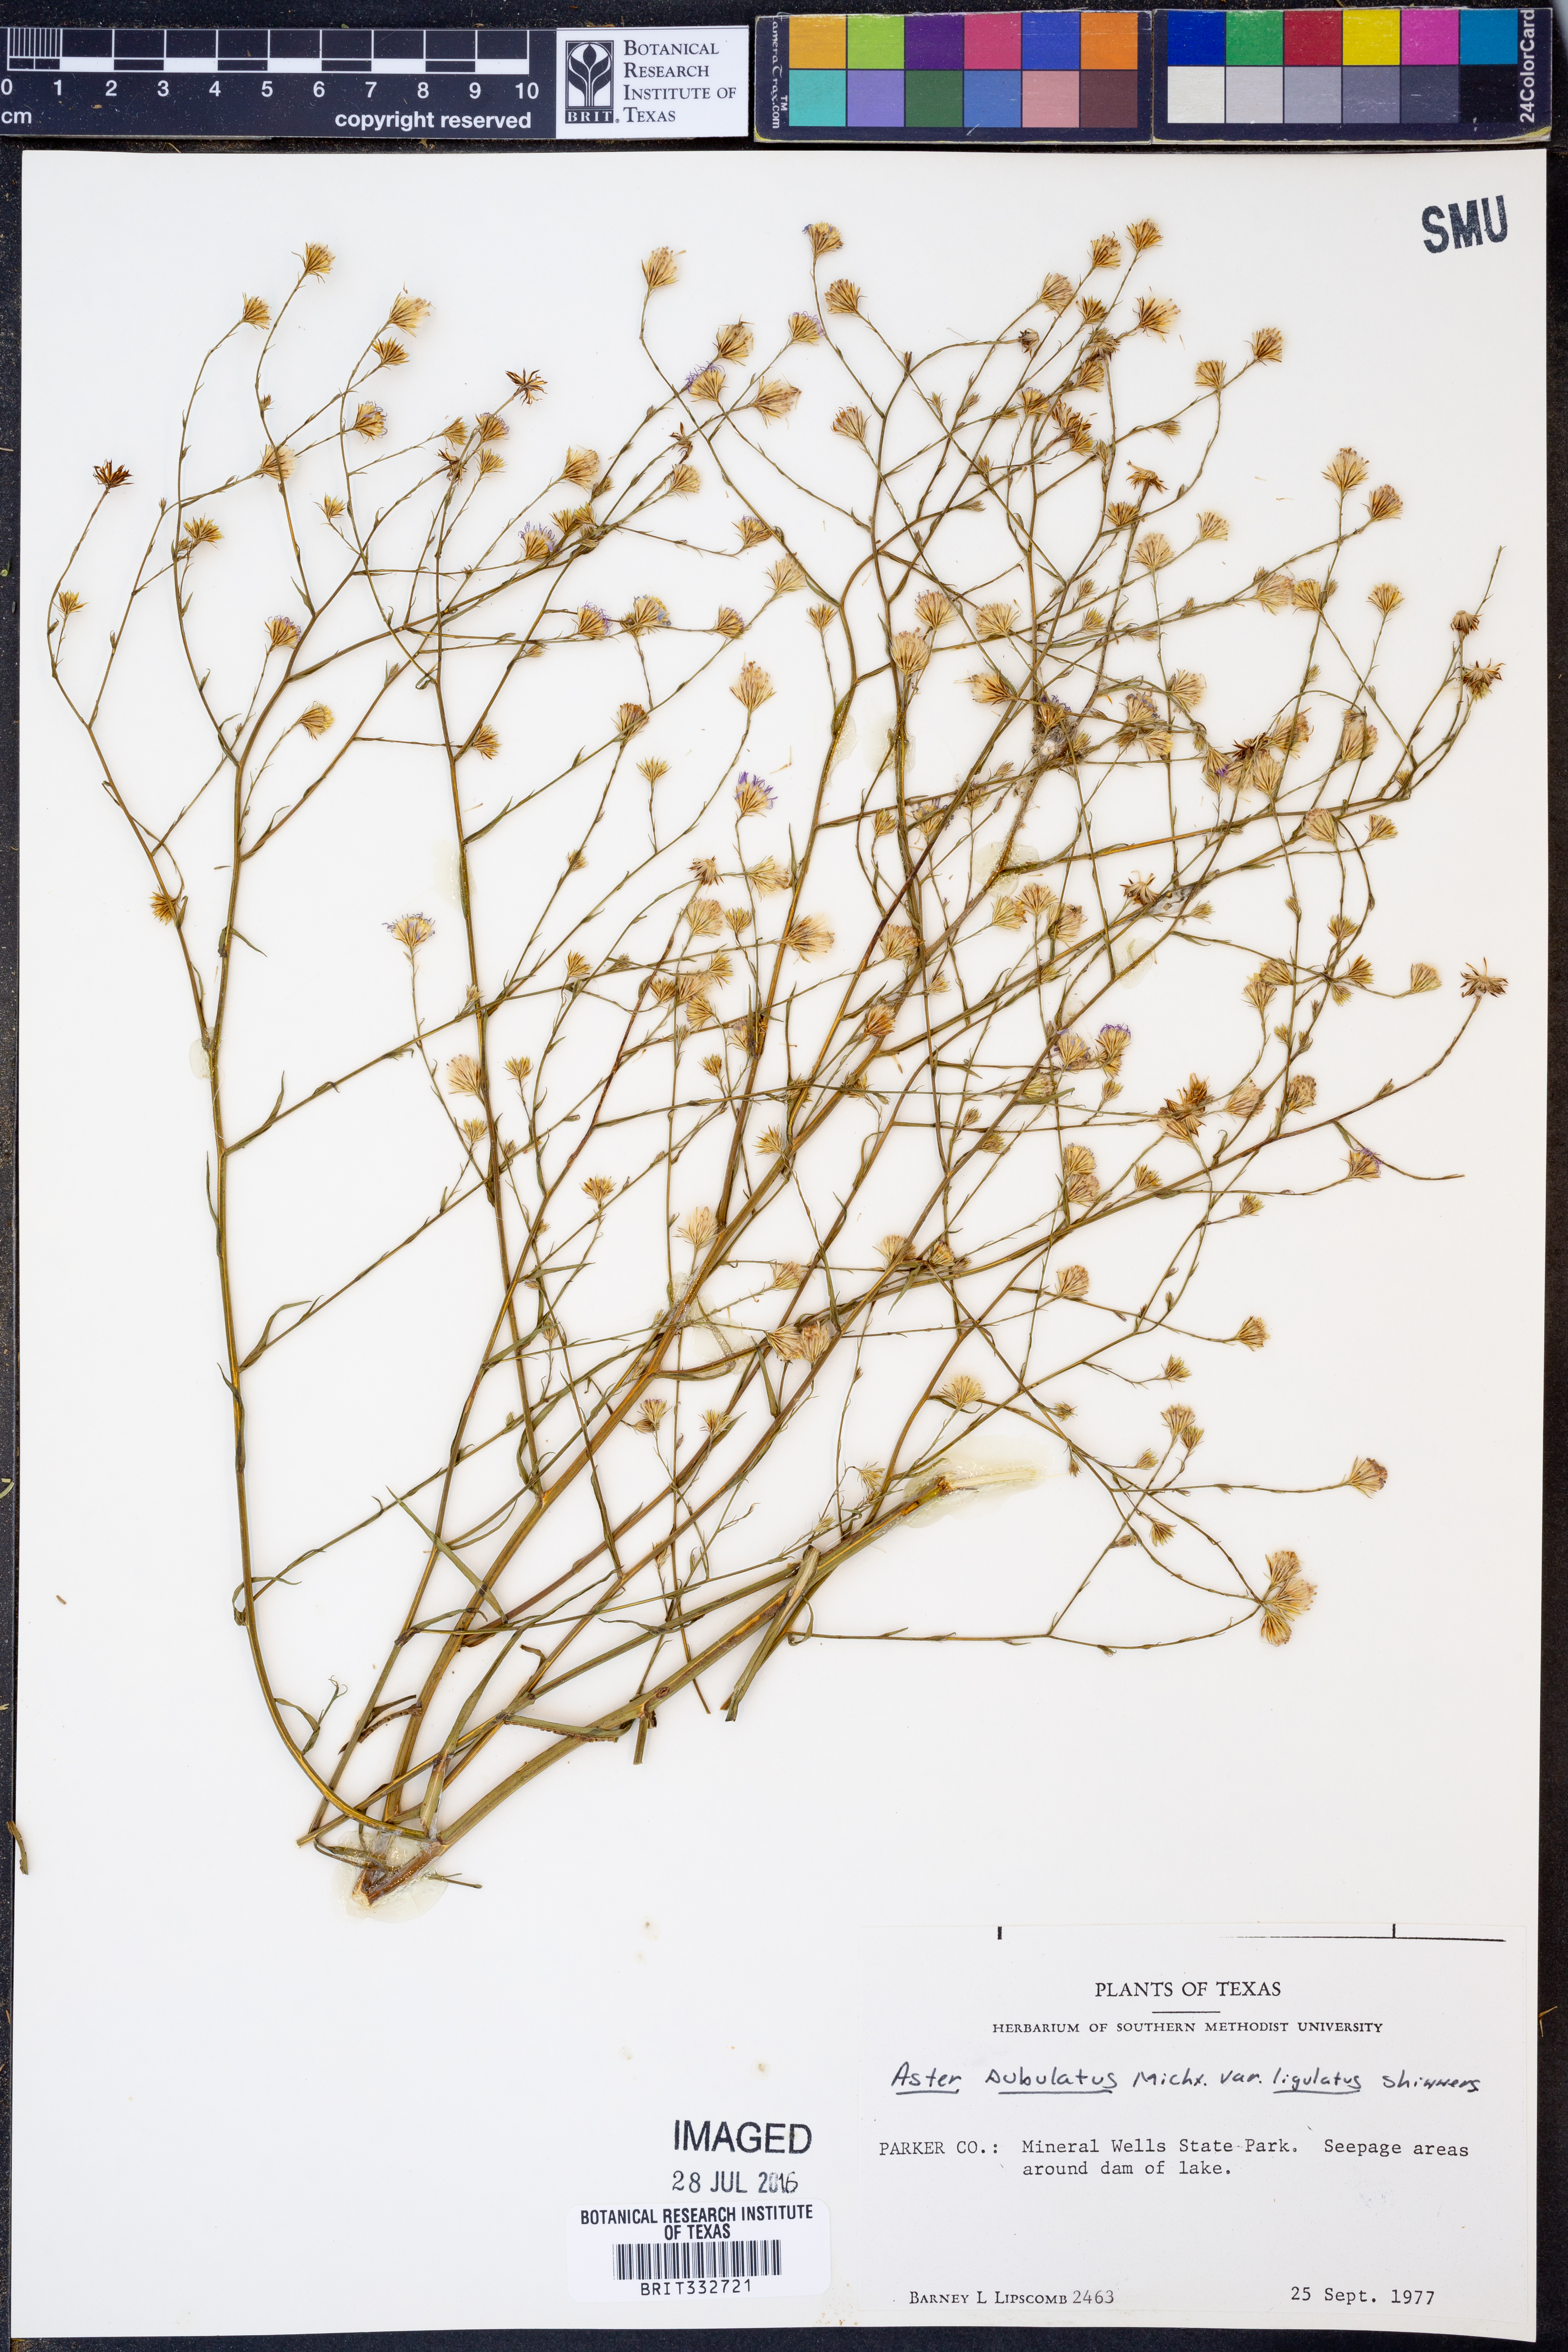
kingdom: Plantae
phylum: Tracheophyta
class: Magnoliopsida
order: Asterales
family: Asteraceae
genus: Symphyotrichum
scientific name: Symphyotrichum subulatum
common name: Annual saltmarsh aster
